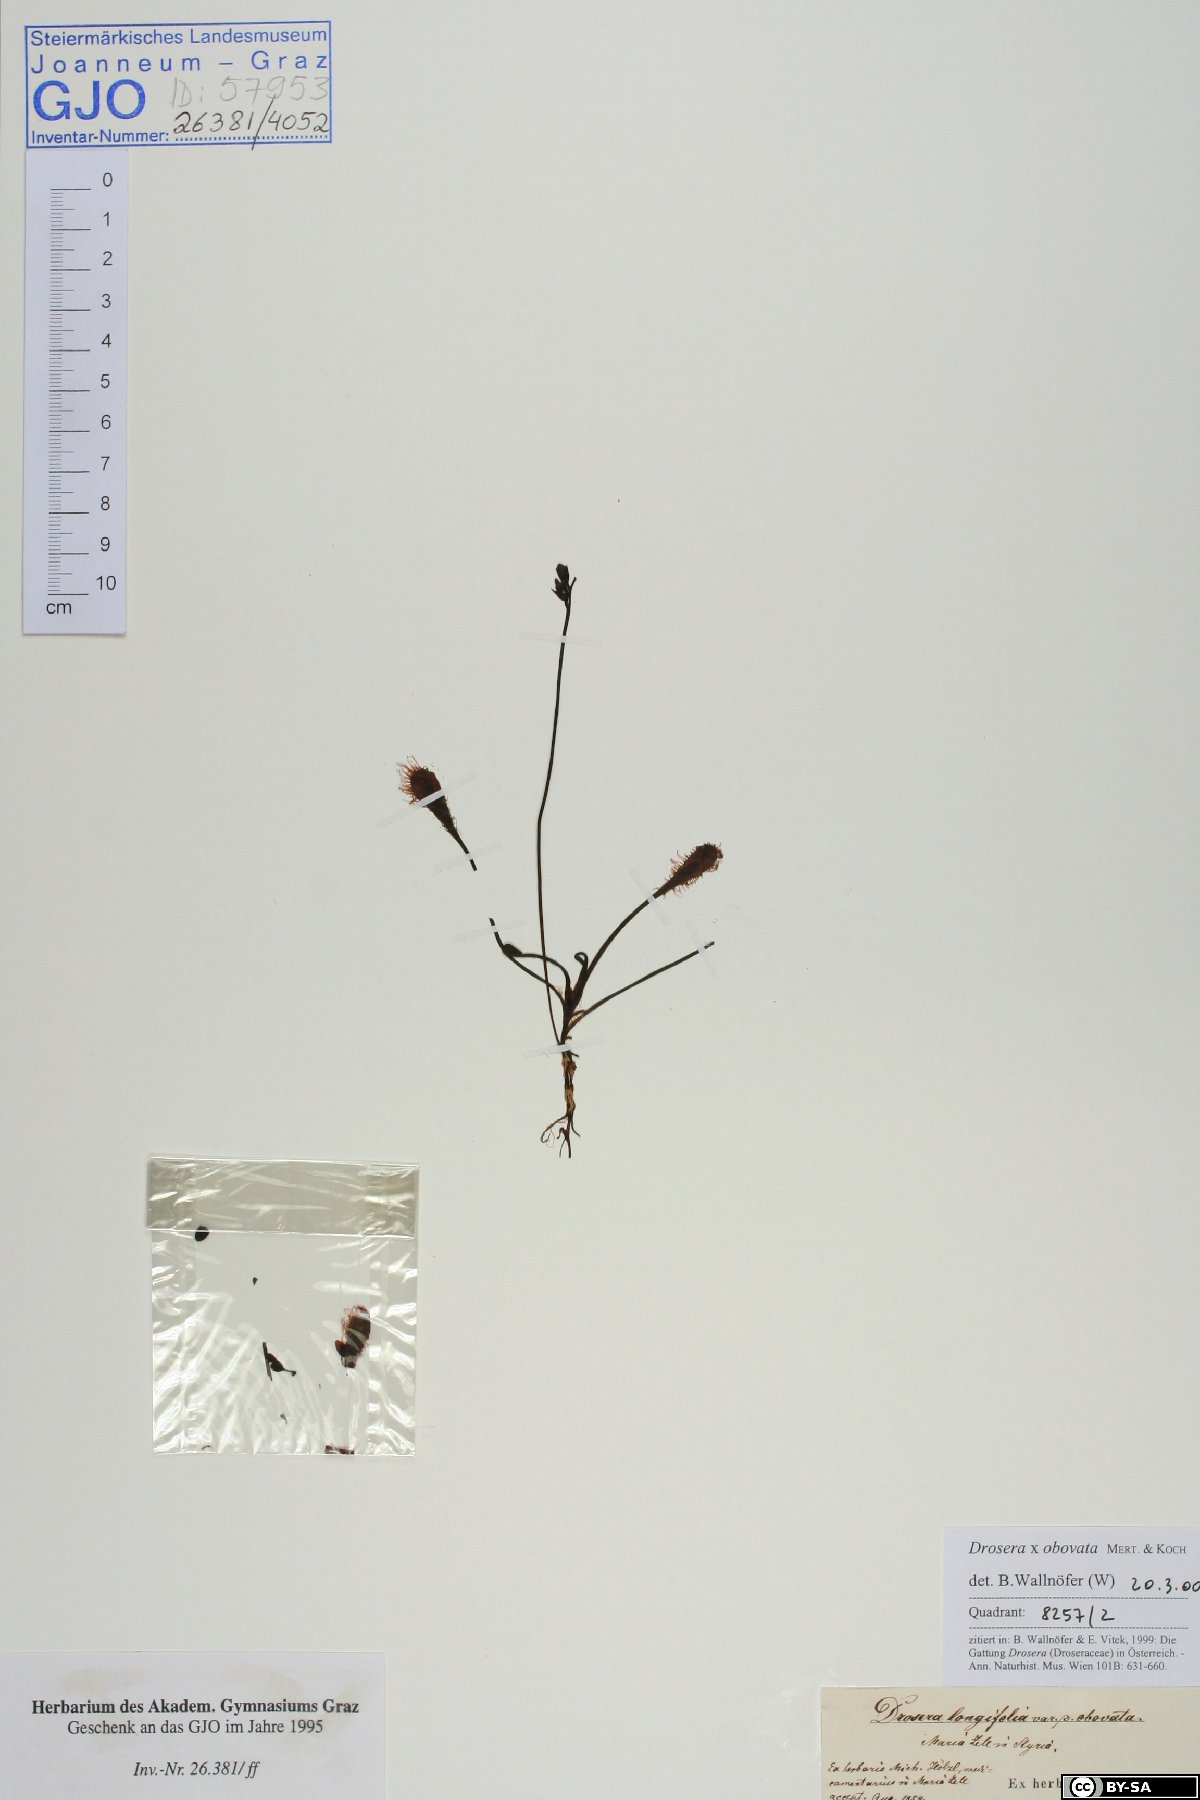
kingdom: Plantae
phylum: Tracheophyta
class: Magnoliopsida
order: Caryophyllales
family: Droseraceae
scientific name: Droseraceae
